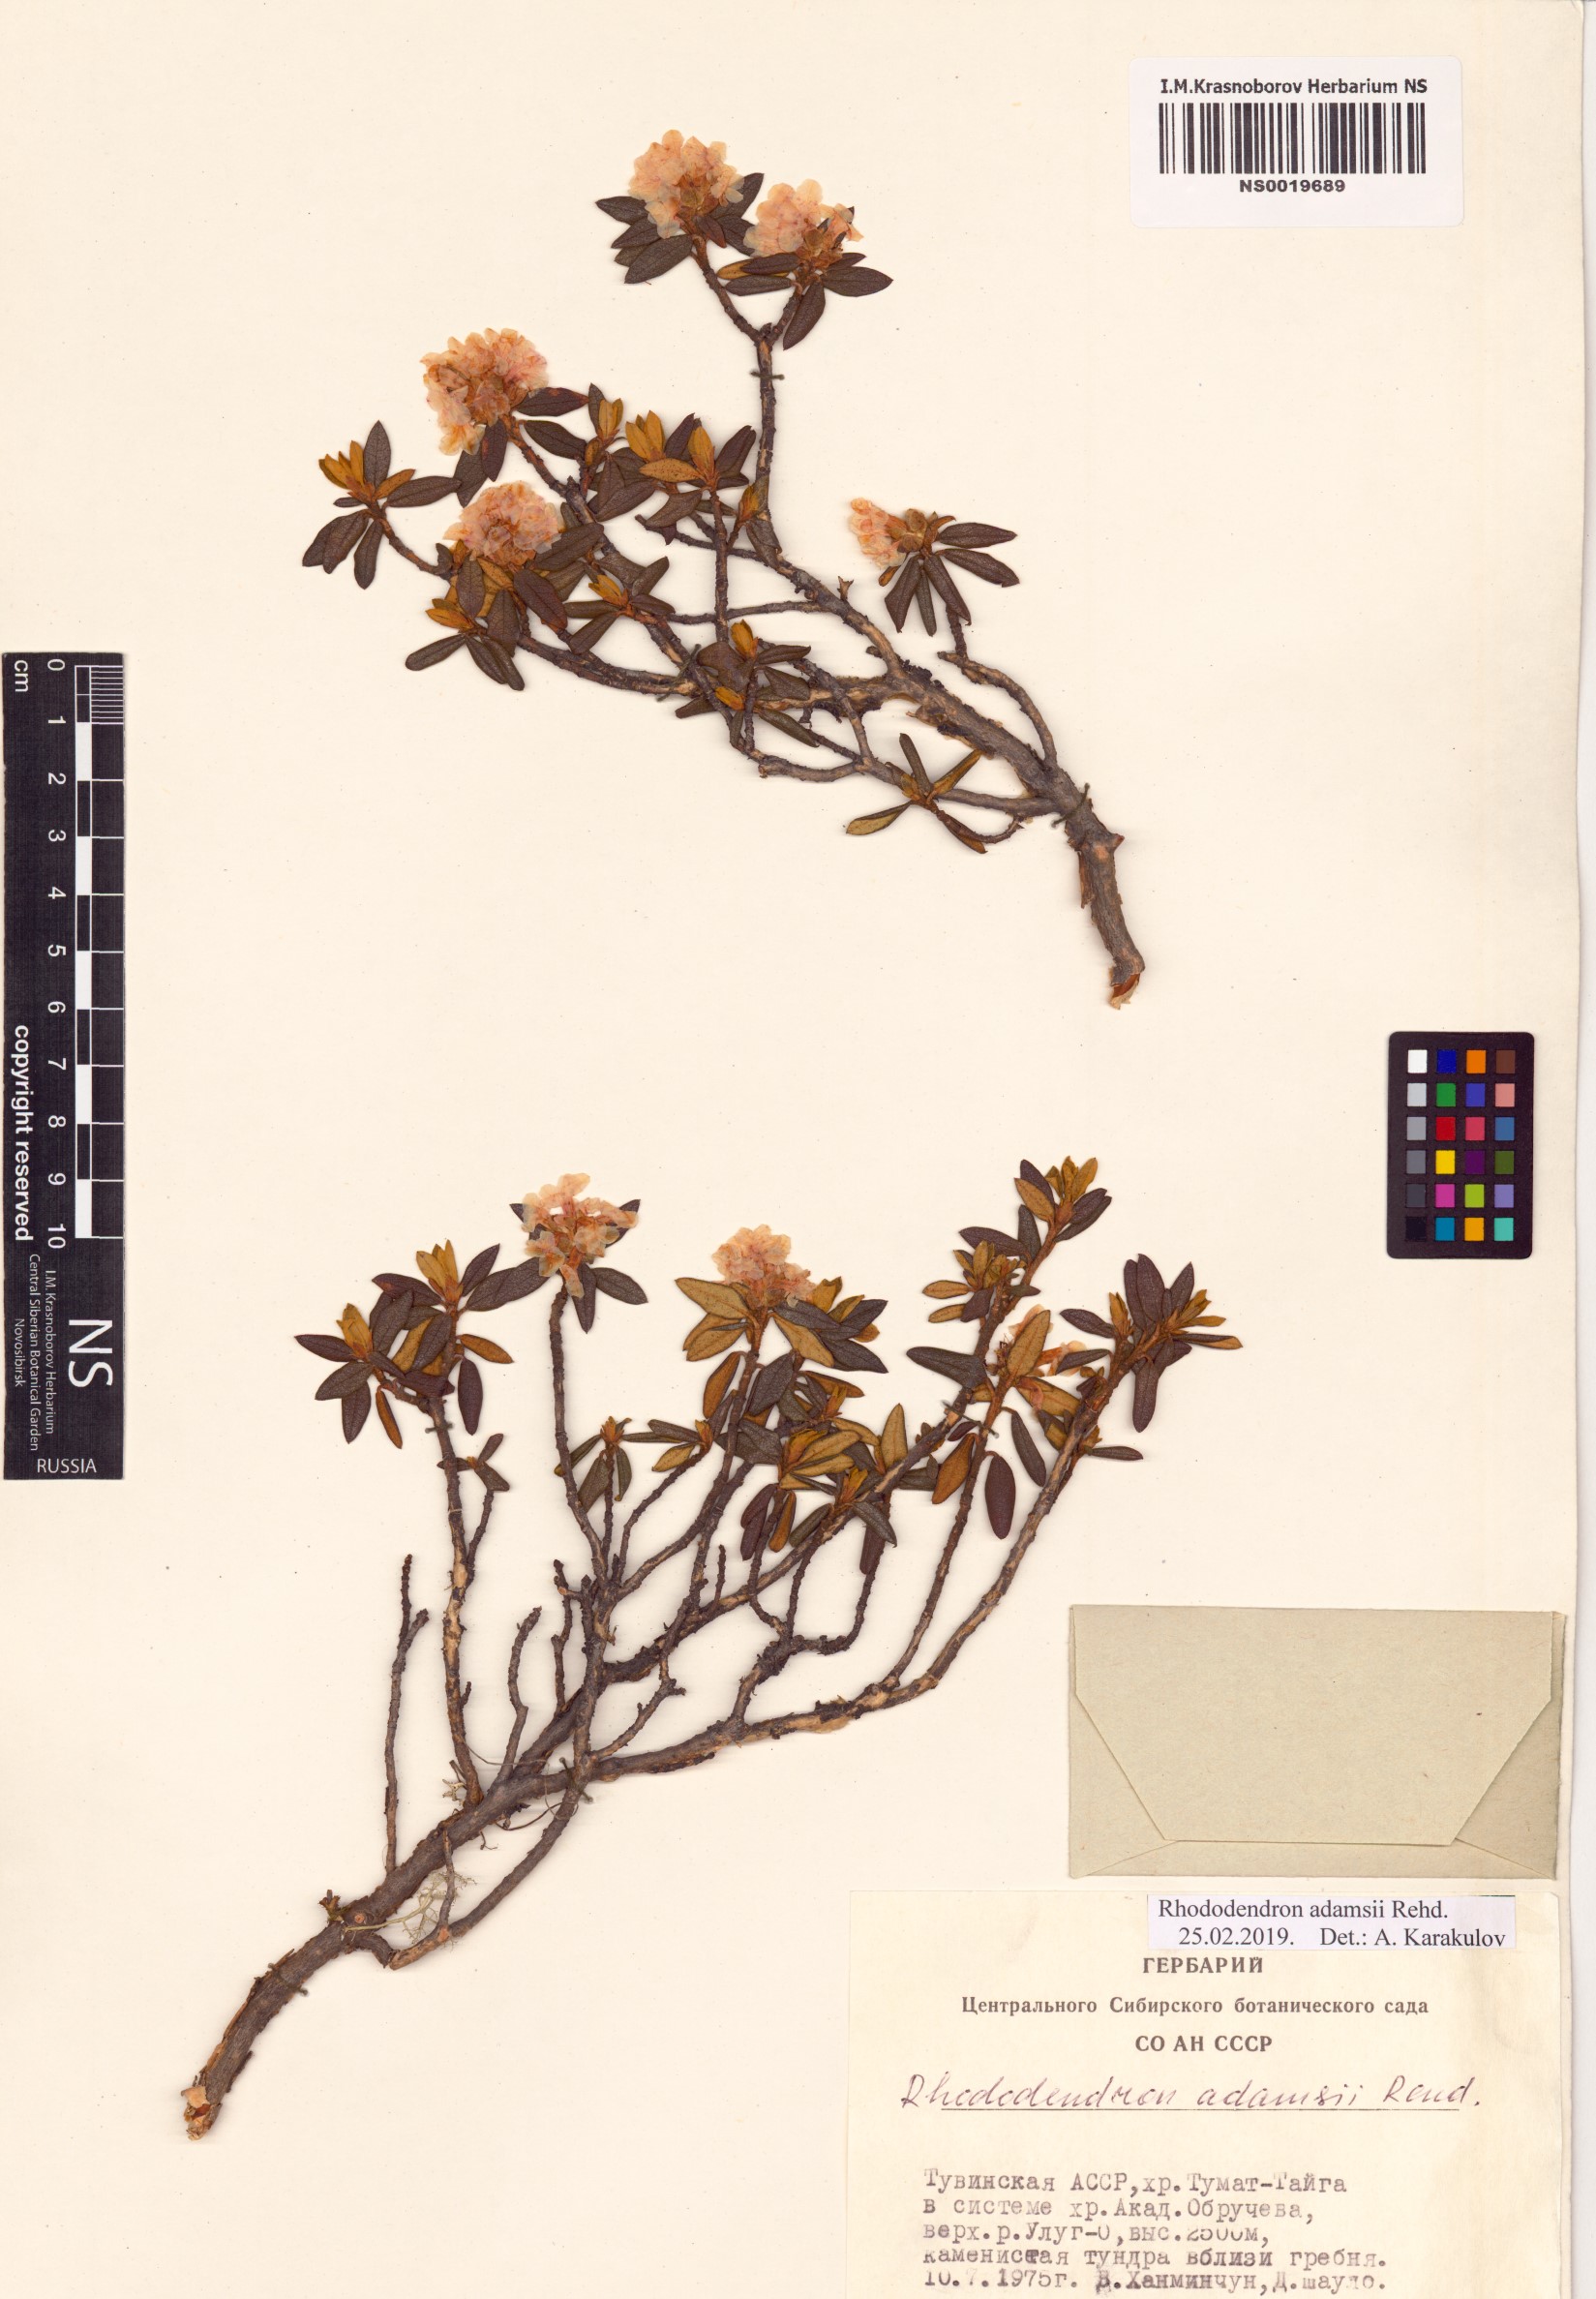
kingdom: Plantae
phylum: Tracheophyta
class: Magnoliopsida
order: Ericales
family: Ericaceae
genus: Rhododendron
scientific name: Rhododendron adamsii
